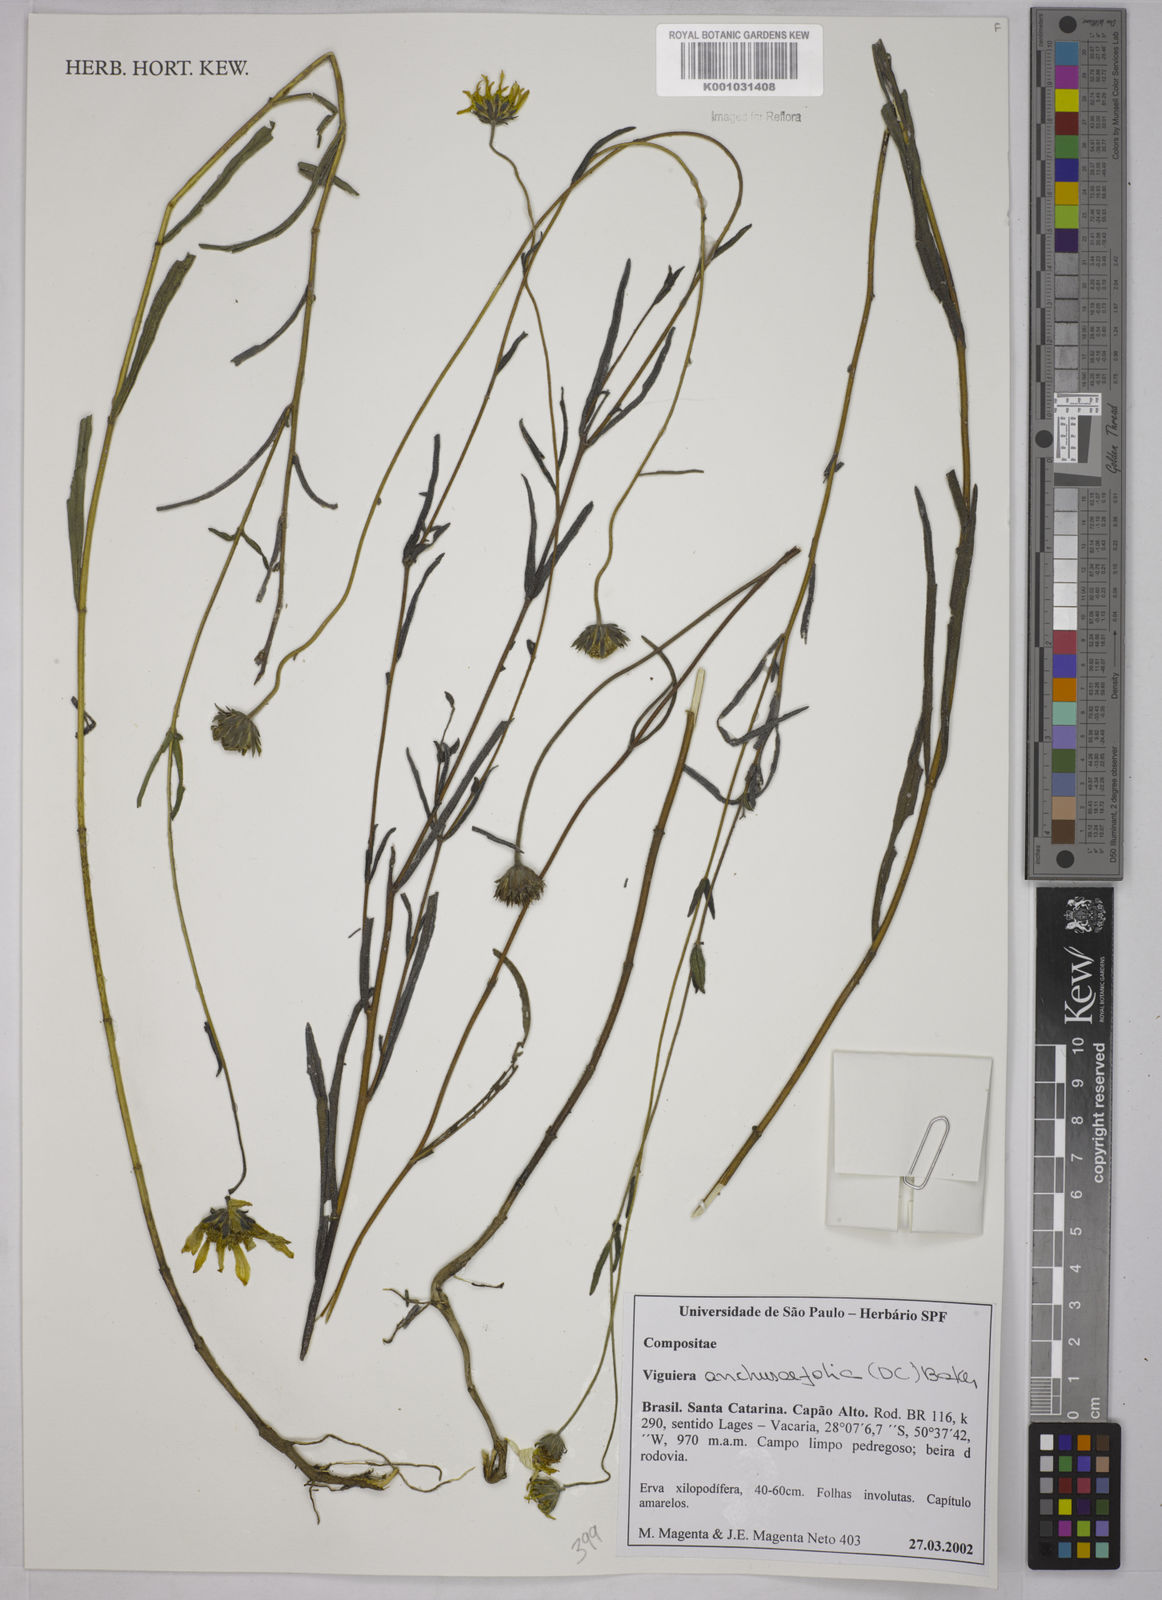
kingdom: Plantae
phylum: Tracheophyta
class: Magnoliopsida
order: Asterales
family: Asteraceae
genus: Viguiera
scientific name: Viguiera
